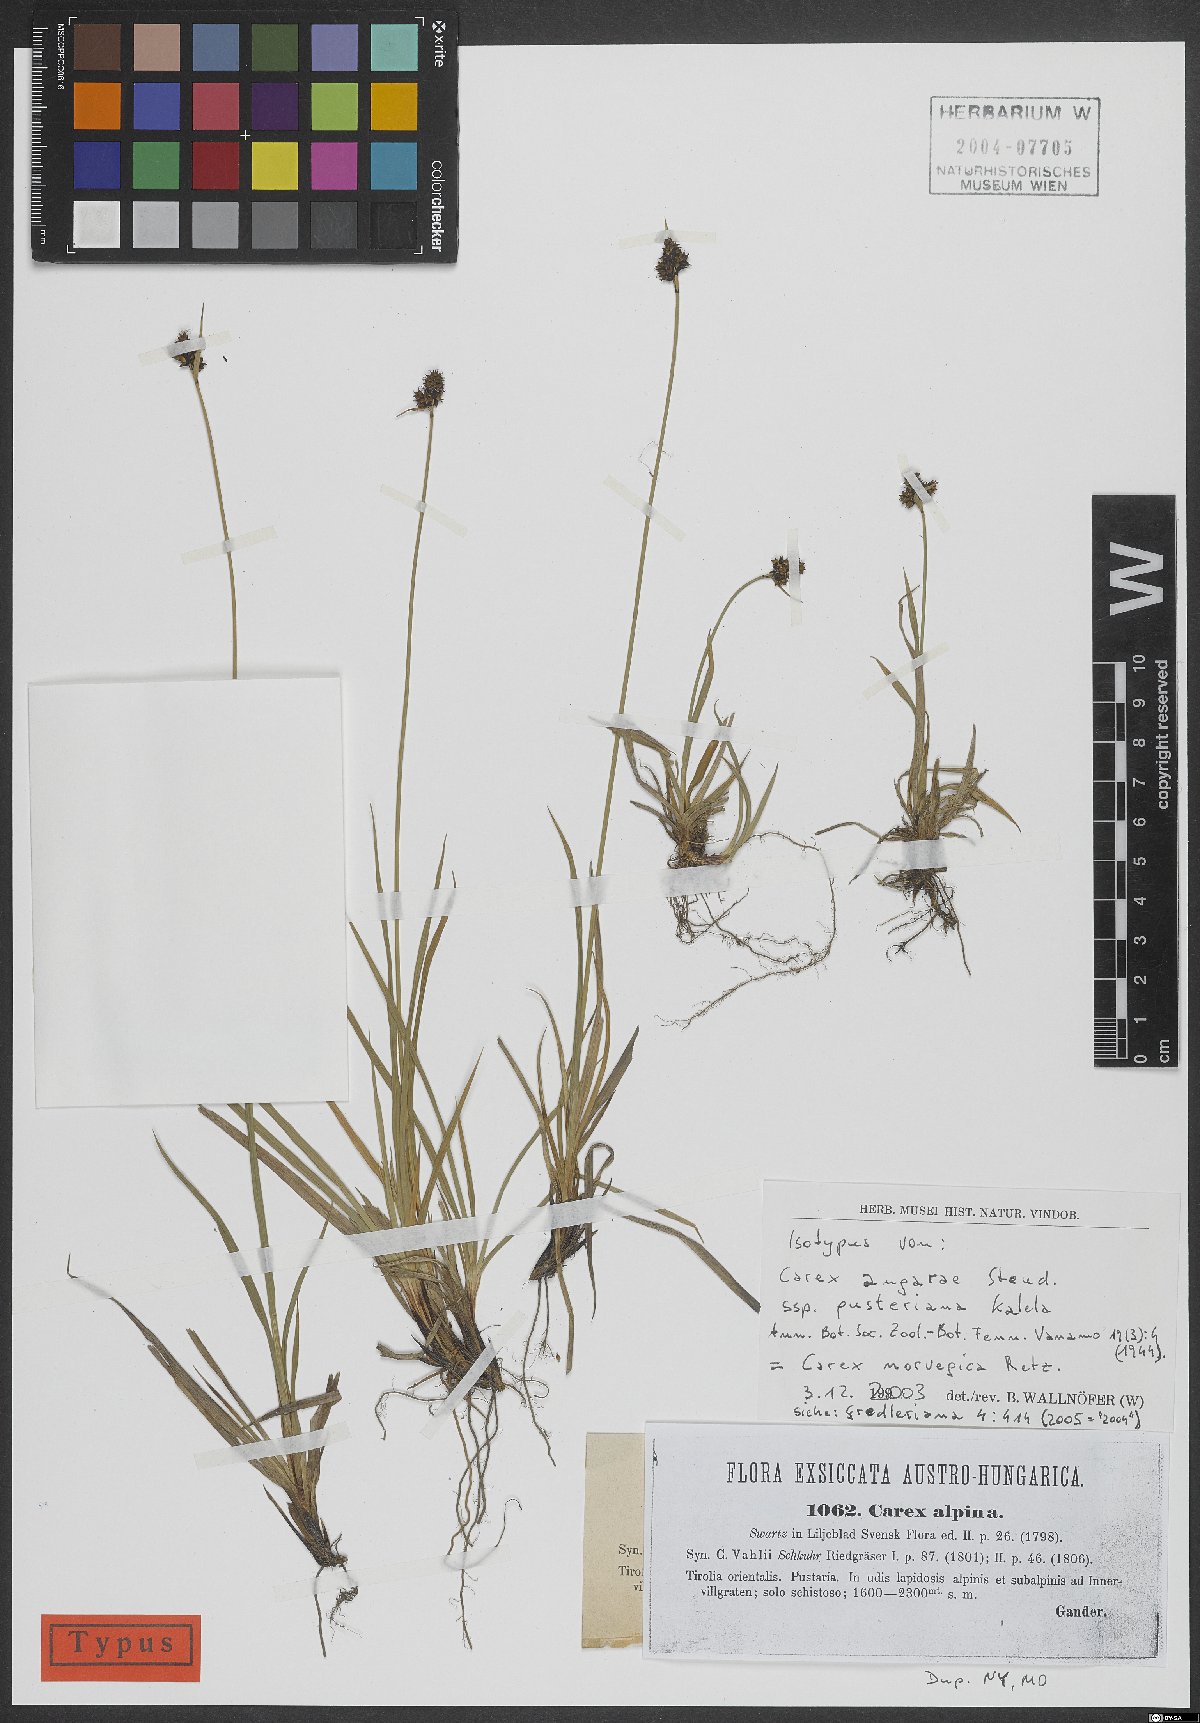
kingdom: Plantae
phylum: Tracheophyta
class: Liliopsida
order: Poales
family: Cyperaceae
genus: Carex
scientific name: Carex norvegica
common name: Close-headed alpine-sedge
